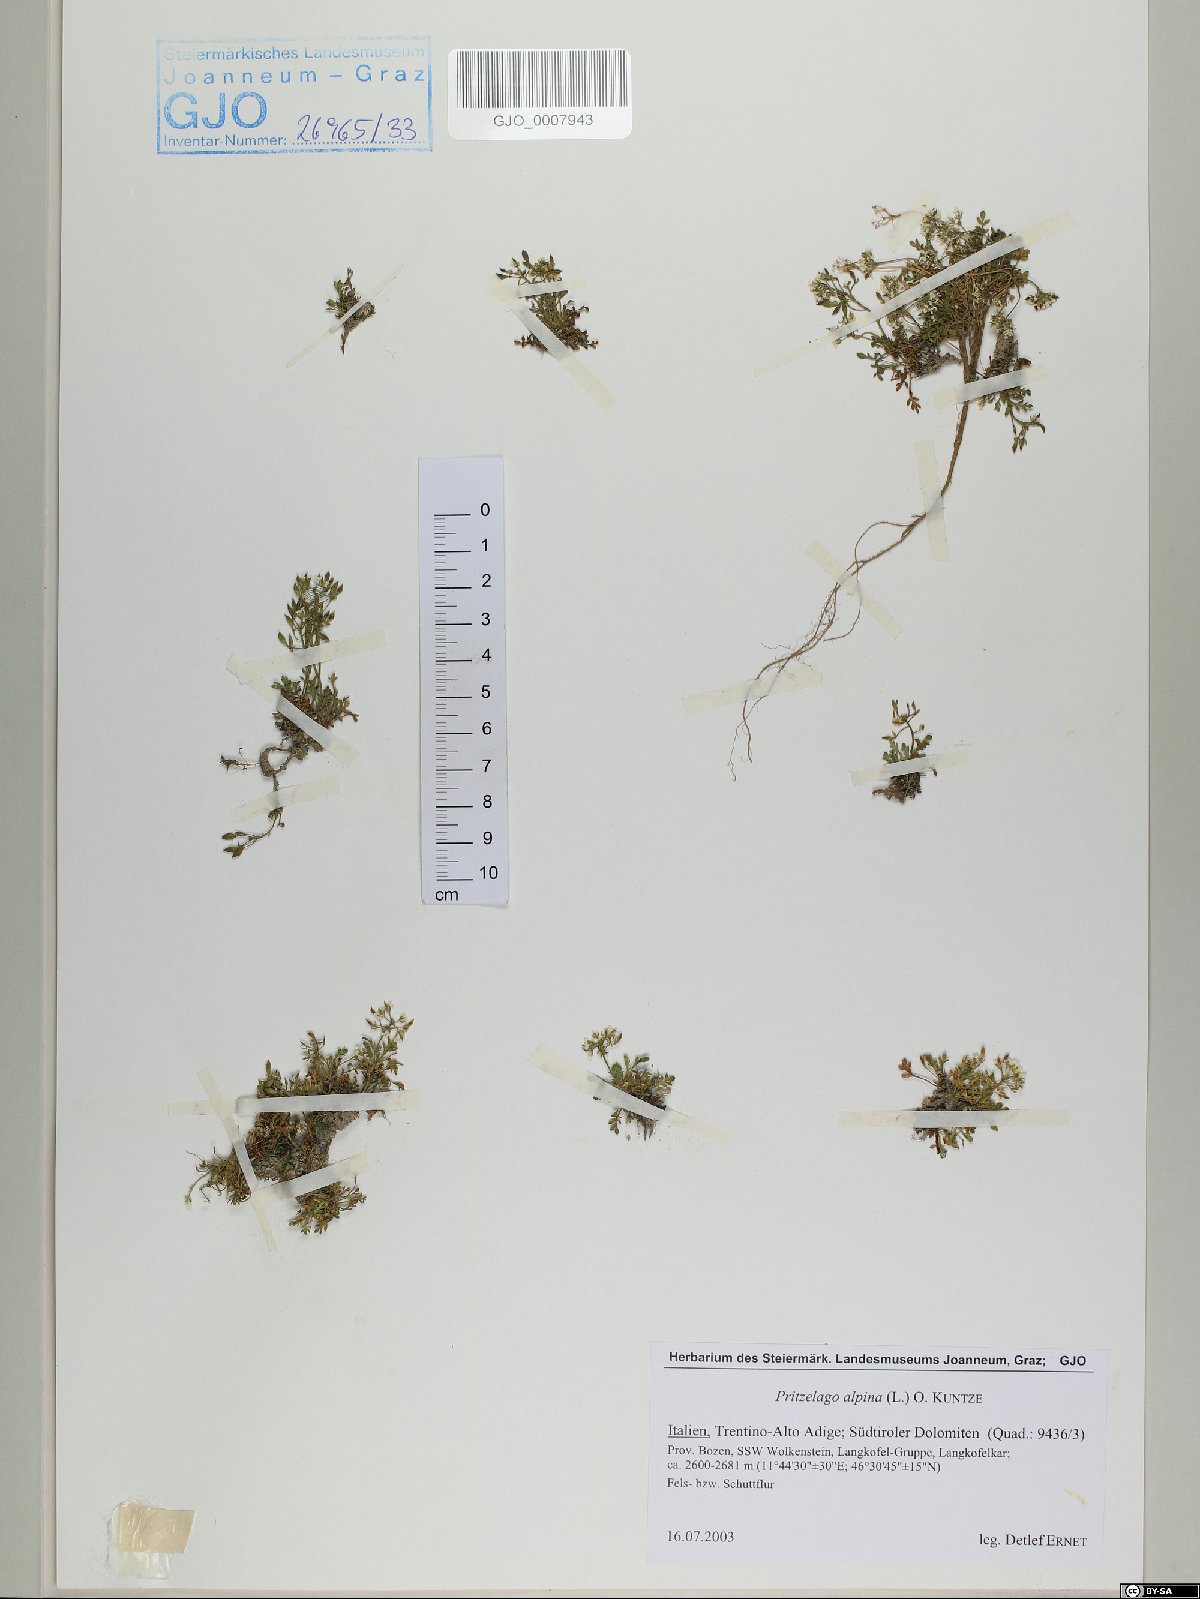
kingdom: Plantae
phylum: Tracheophyta
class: Magnoliopsida
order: Brassicales
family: Brassicaceae
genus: Hornungia
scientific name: Hornungia alpina
